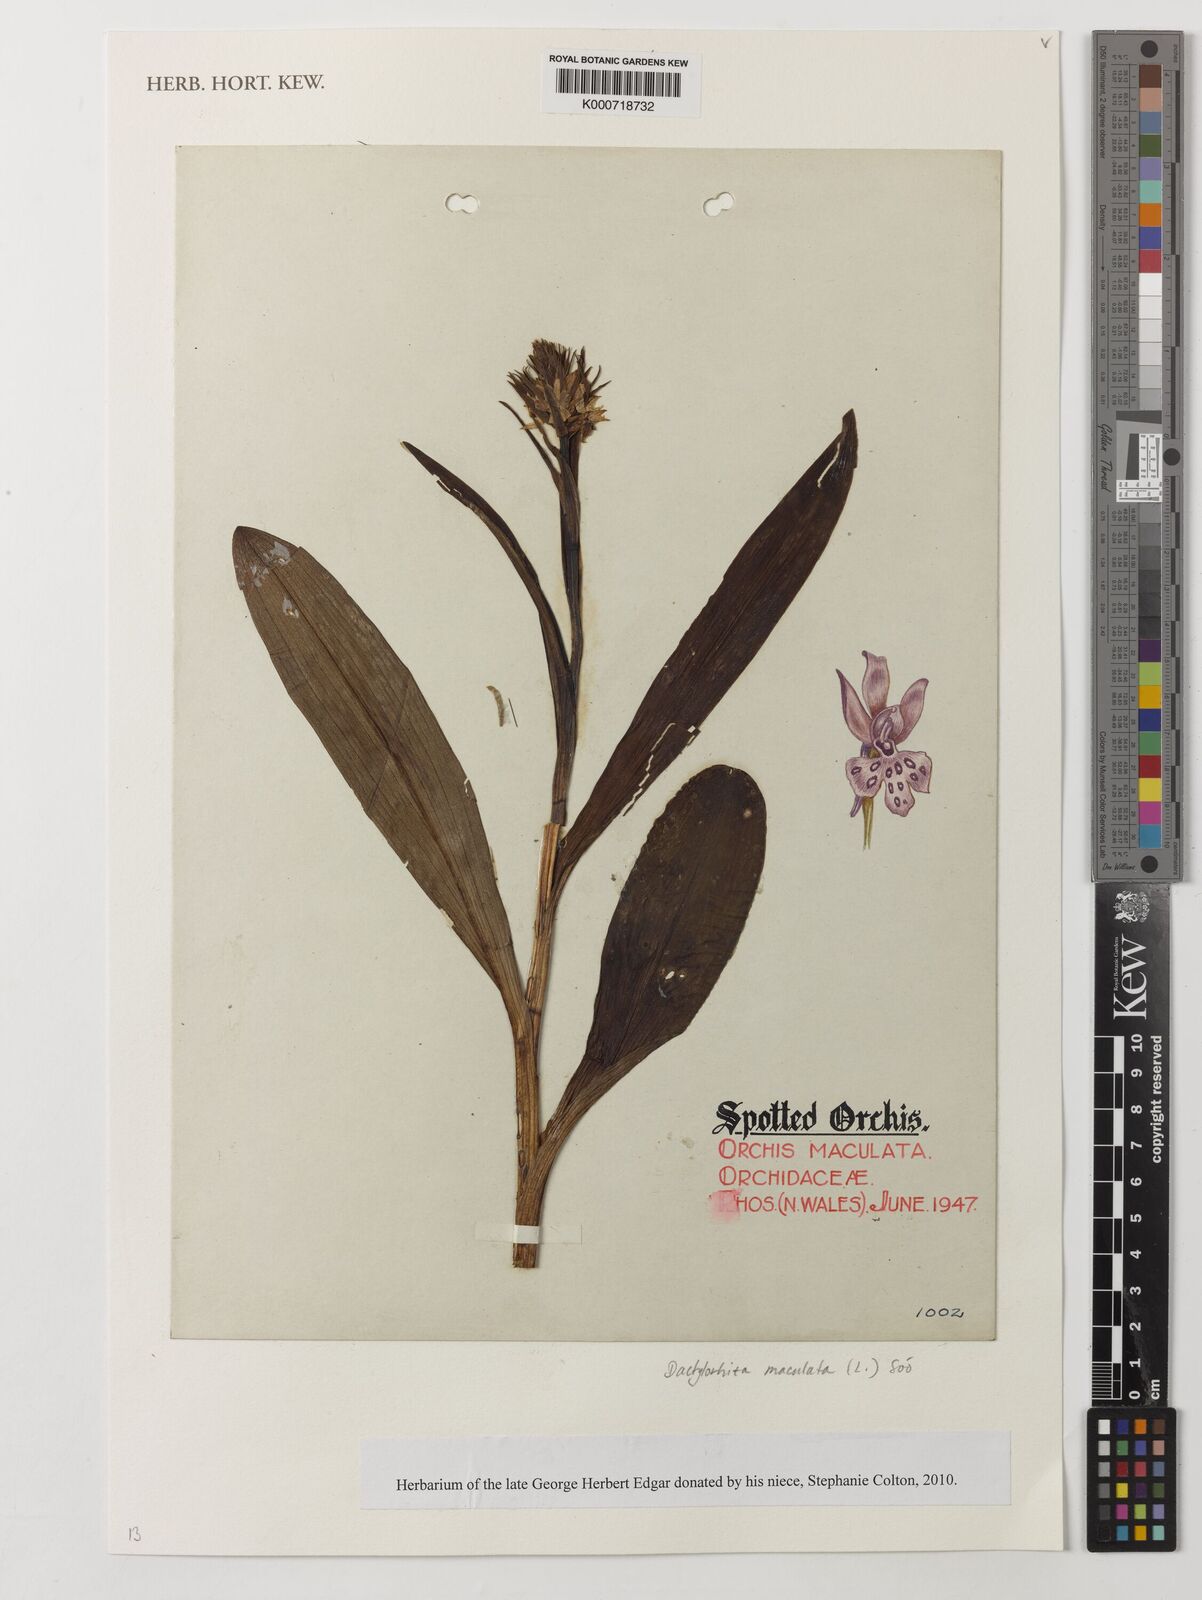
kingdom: Plantae
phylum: Tracheophyta
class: Liliopsida
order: Asparagales
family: Orchidaceae
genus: Dactylorhiza
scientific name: Dactylorhiza
